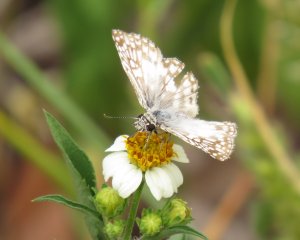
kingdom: Animalia
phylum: Arthropoda
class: Insecta
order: Lepidoptera
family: Hesperiidae
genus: Pyrgus
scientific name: Pyrgus oileus
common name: Tropical Checkered-Skipper
